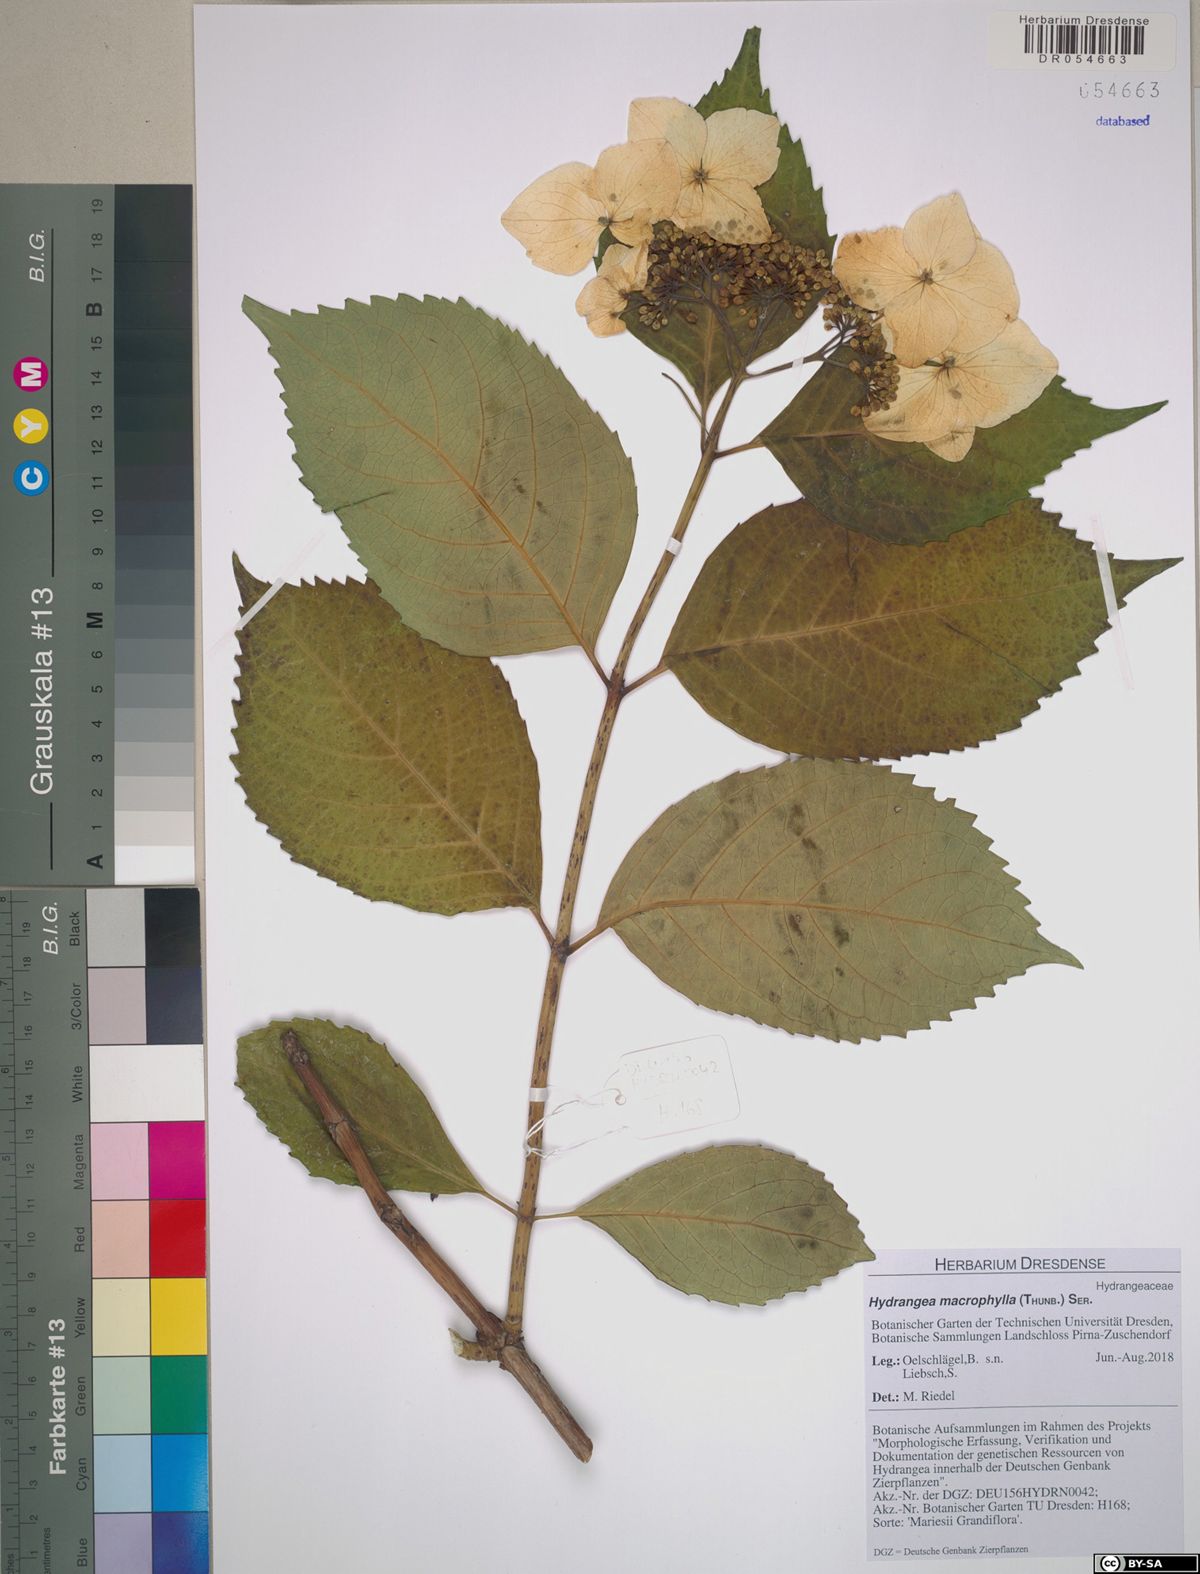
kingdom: Plantae
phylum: Tracheophyta
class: Magnoliopsida
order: Cornales
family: Hydrangeaceae
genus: Hydrangea
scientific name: Hydrangea macrophylla
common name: Hydrangea
